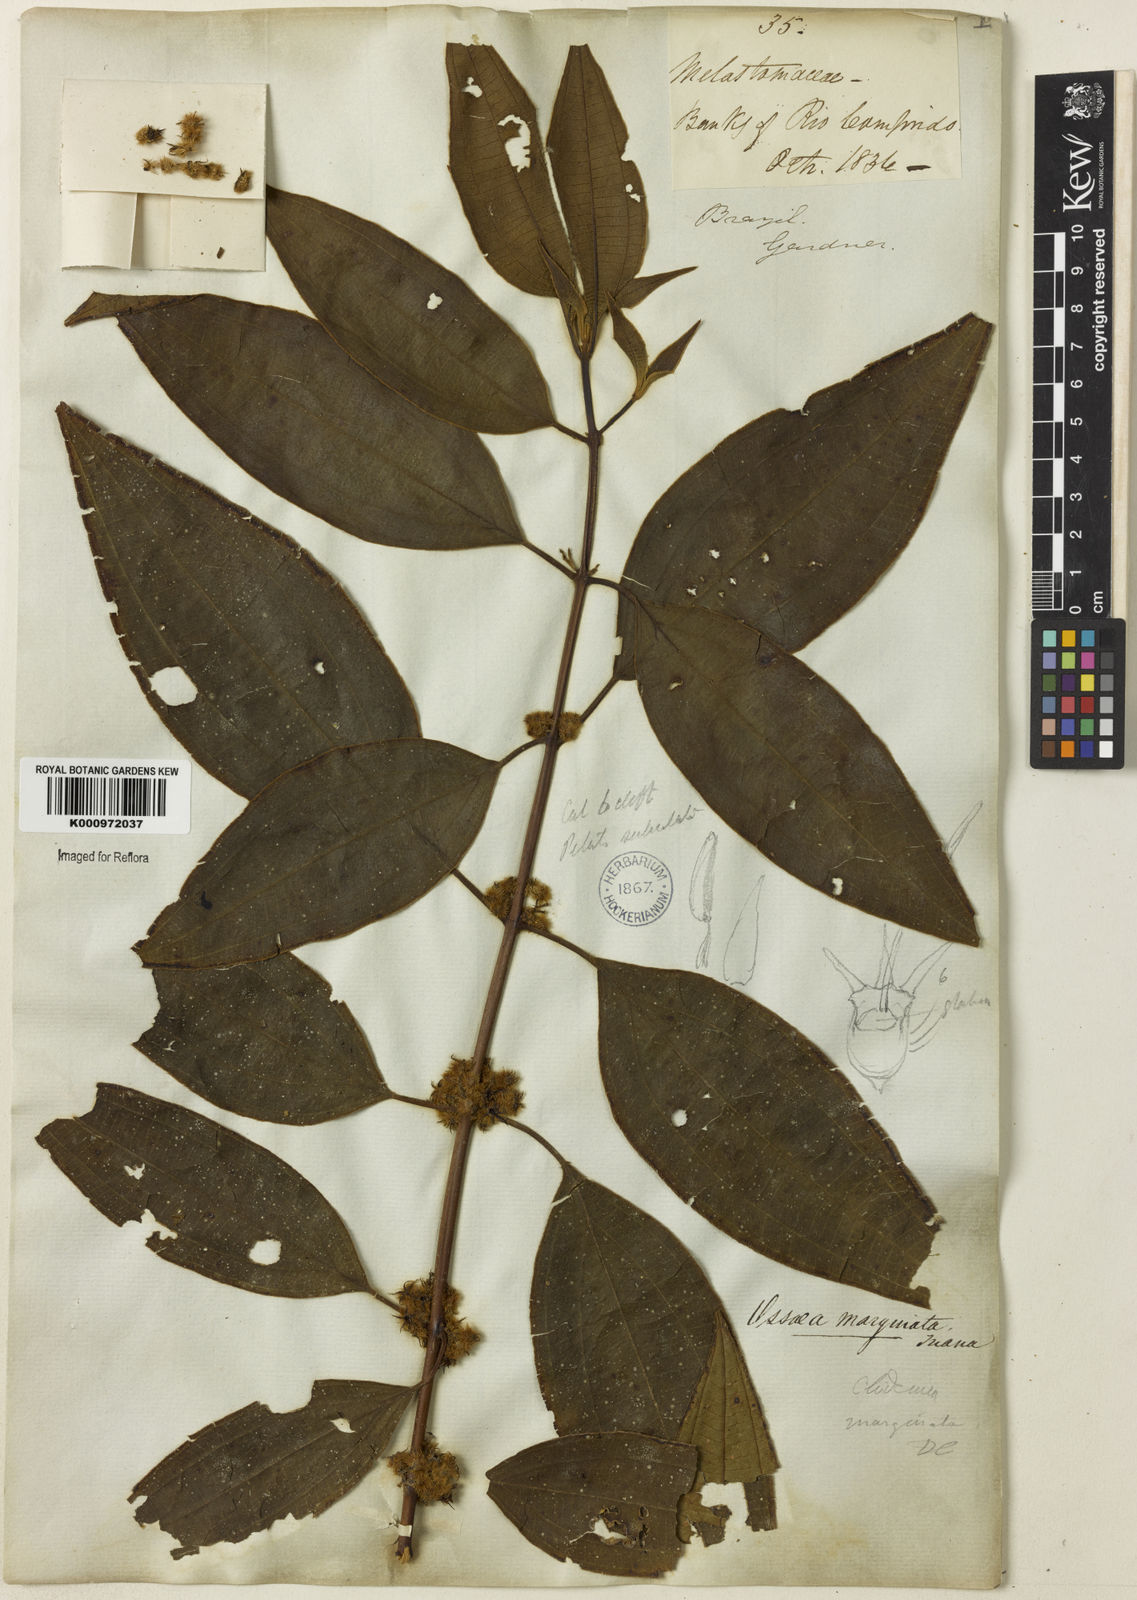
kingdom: Plantae
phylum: Tracheophyta
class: Magnoliopsida
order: Myrtales
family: Melastomataceae
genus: Miconia
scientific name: Miconia leamarginata
